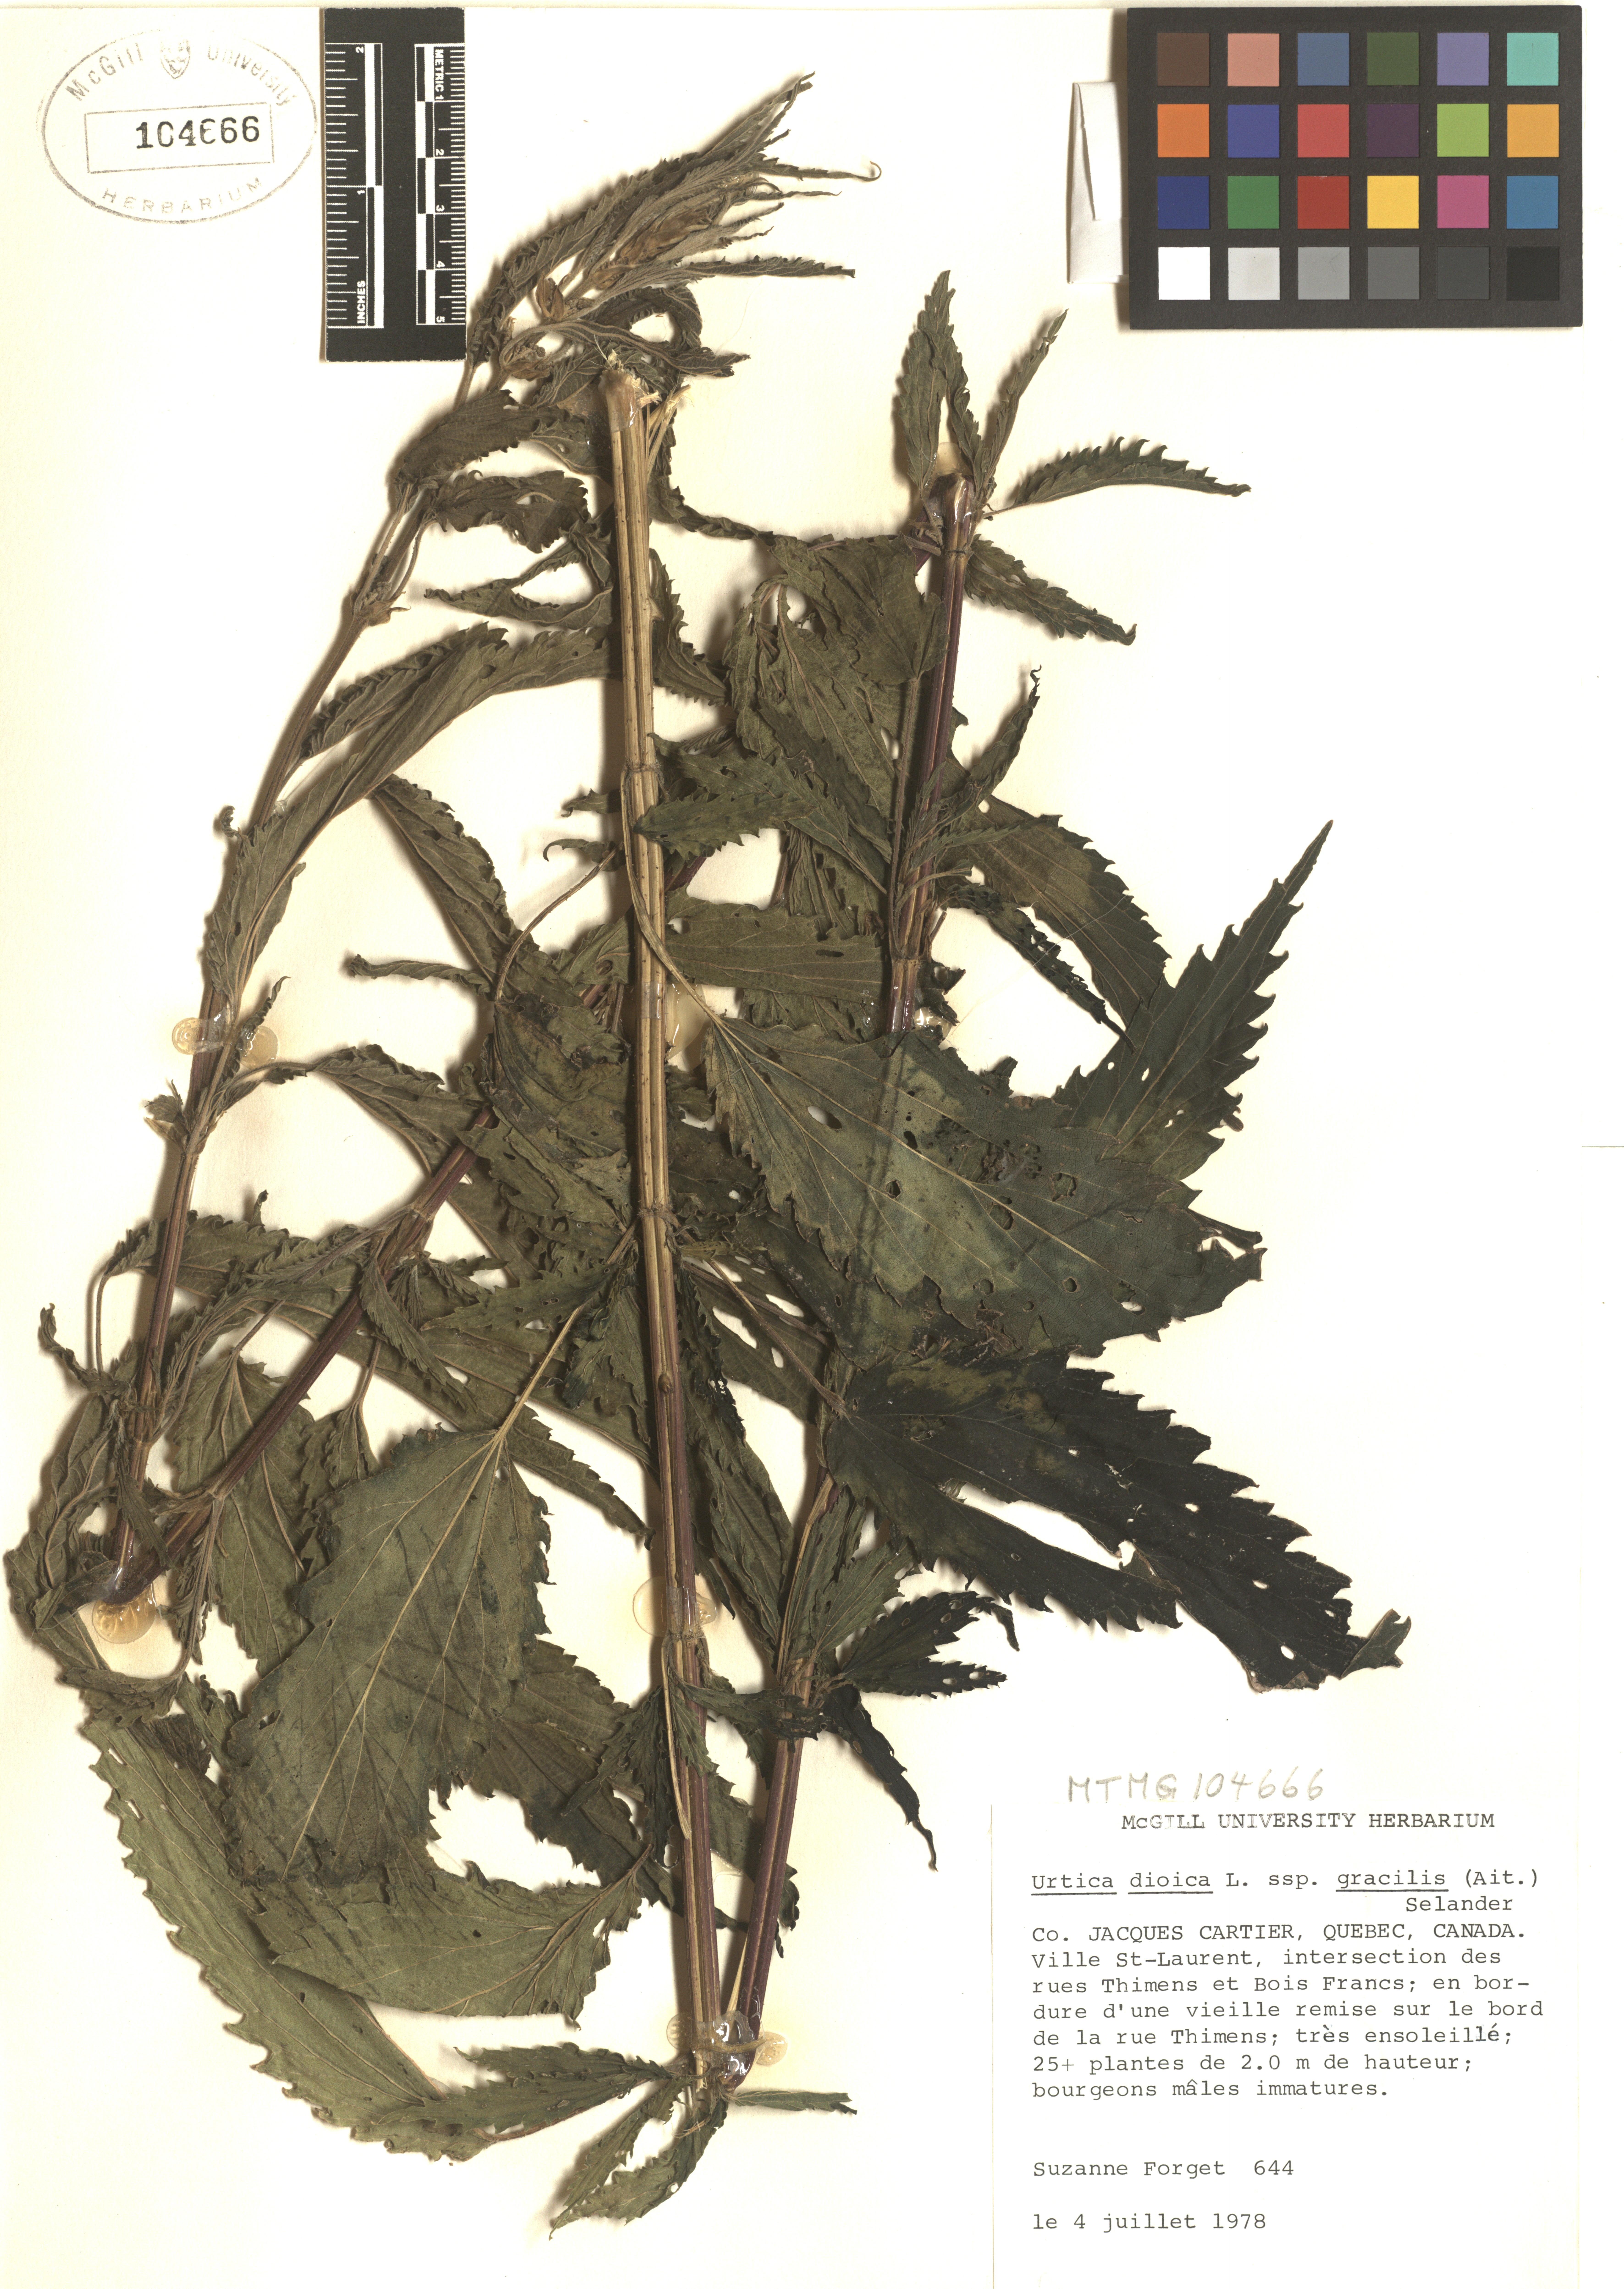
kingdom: Plantae
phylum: Tracheophyta
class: Magnoliopsida
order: Rosales
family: Urticaceae
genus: Urtica
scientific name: Urtica gracilis
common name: Slender stinging nettle
